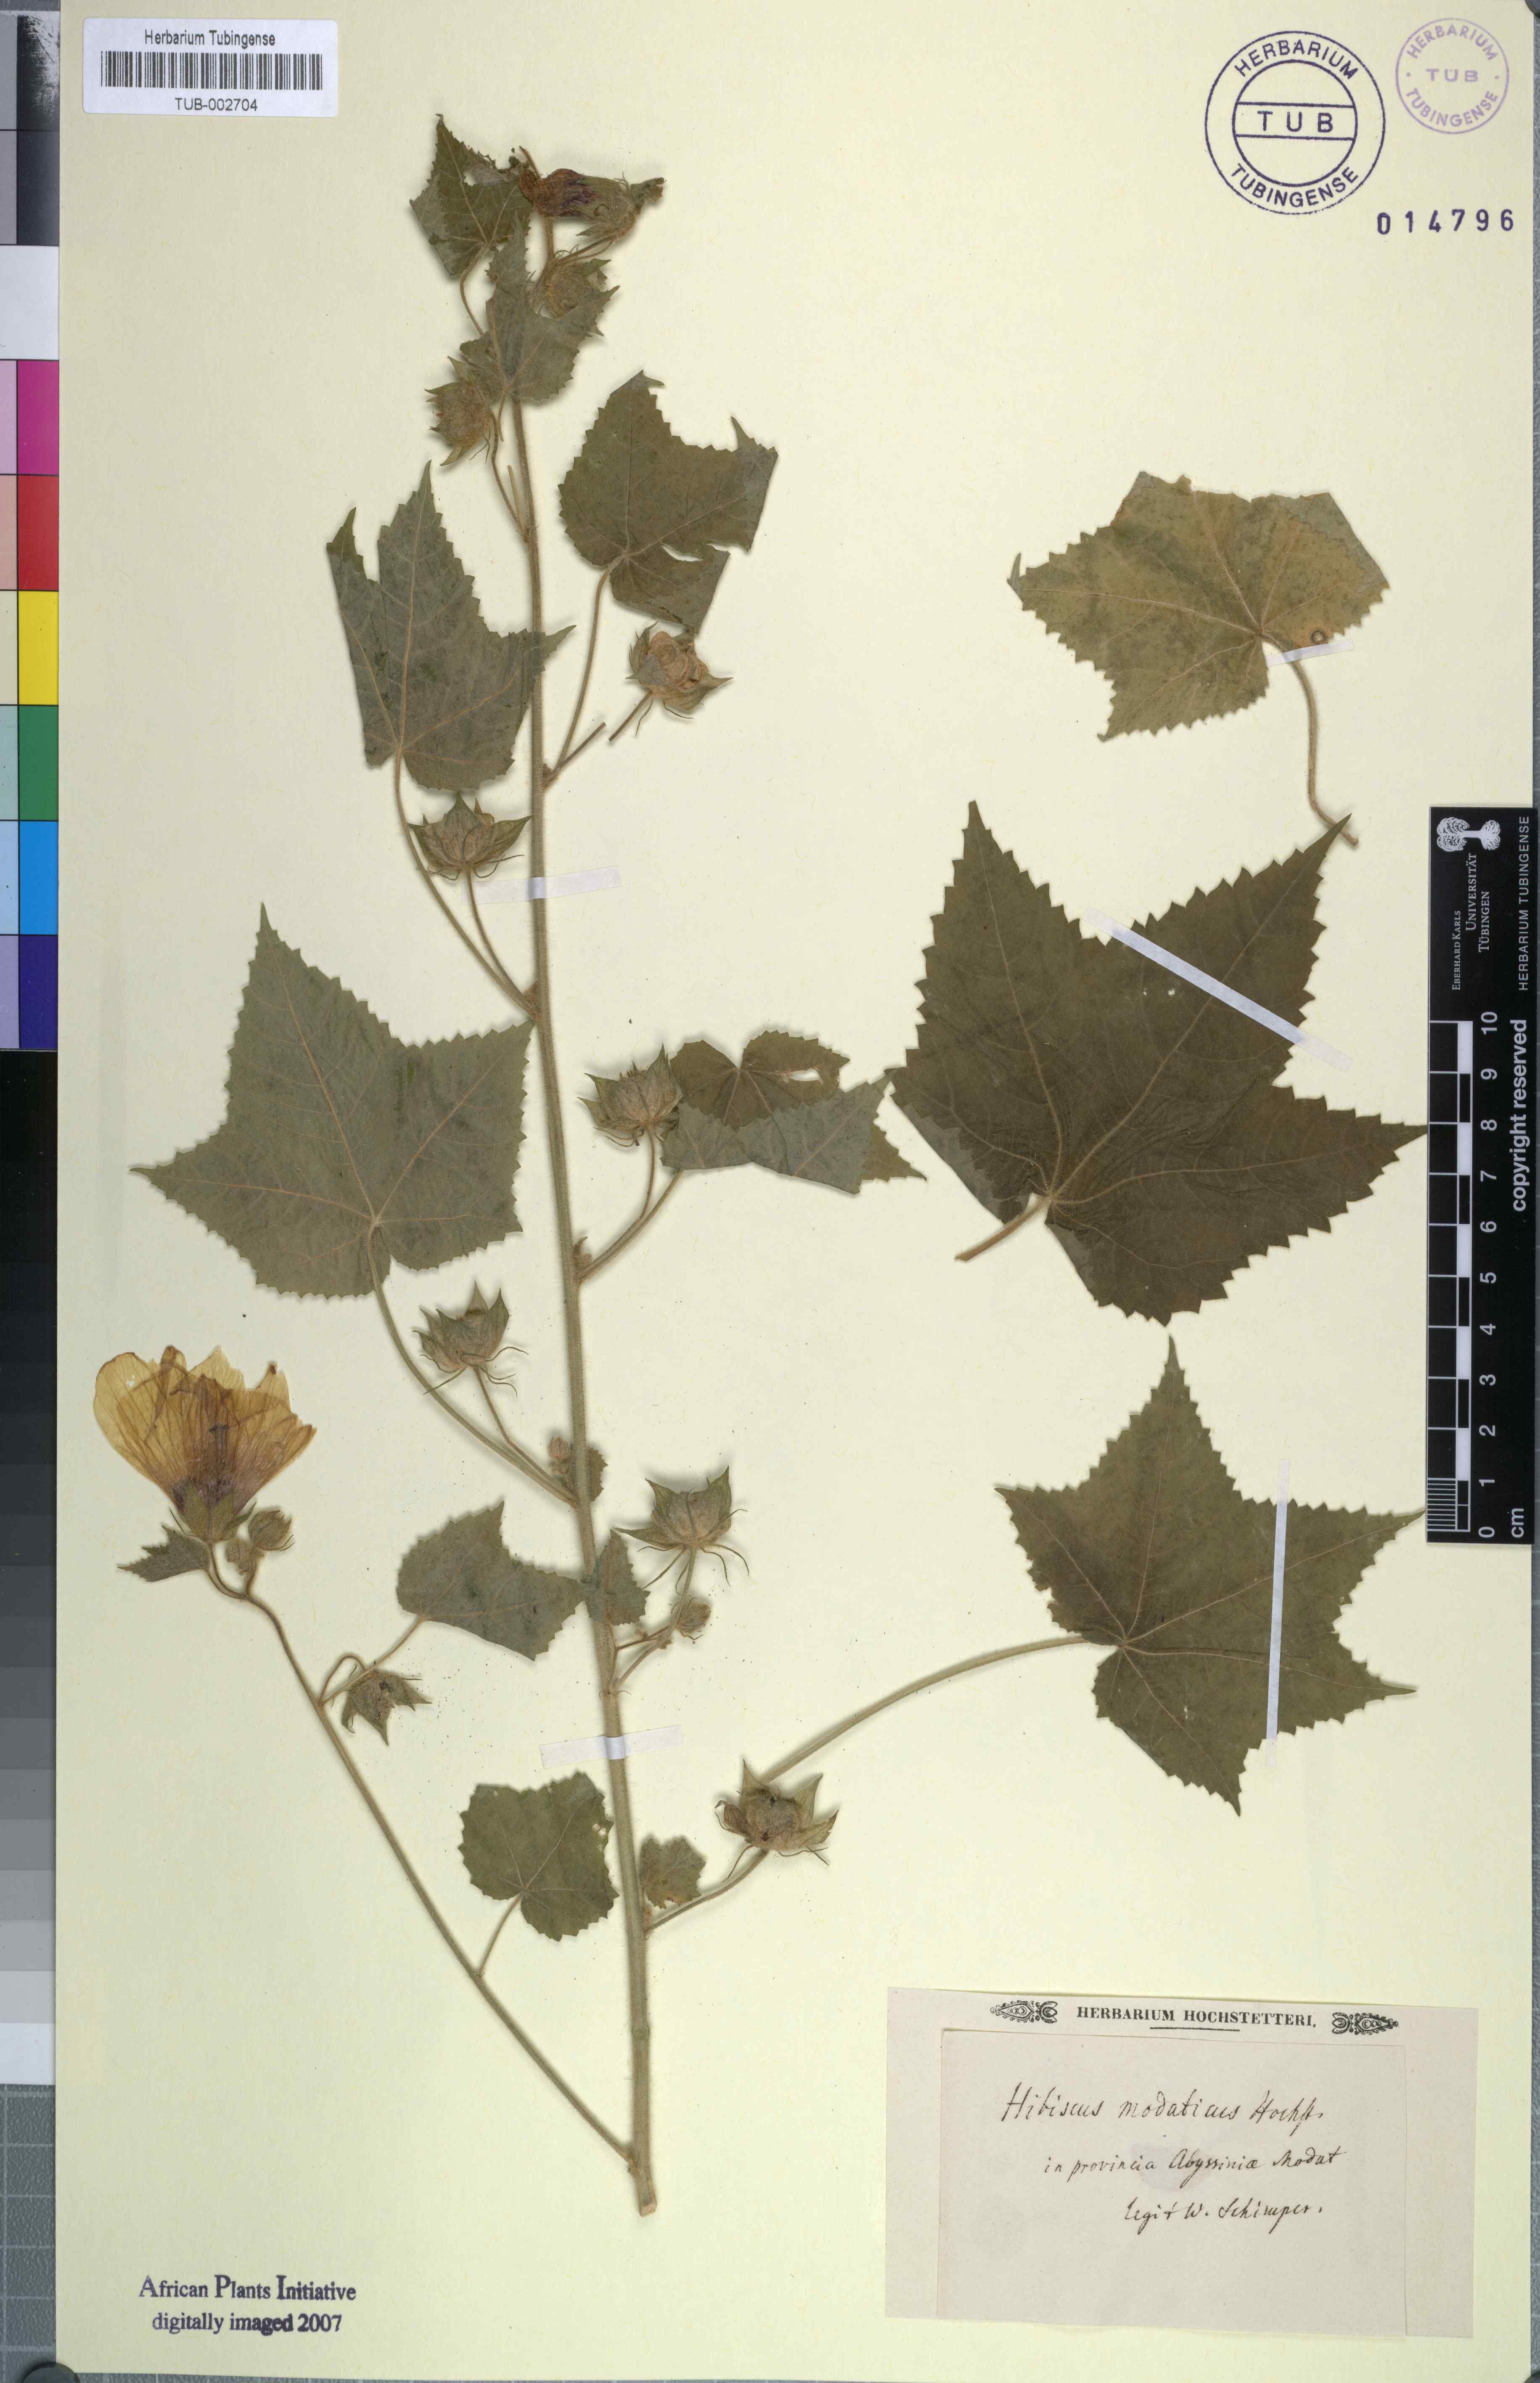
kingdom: Plantae
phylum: Tracheophyta
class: Magnoliopsida
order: Malvales
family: Malvaceae
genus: Hibiscus
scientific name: Hibiscus vitifolius
